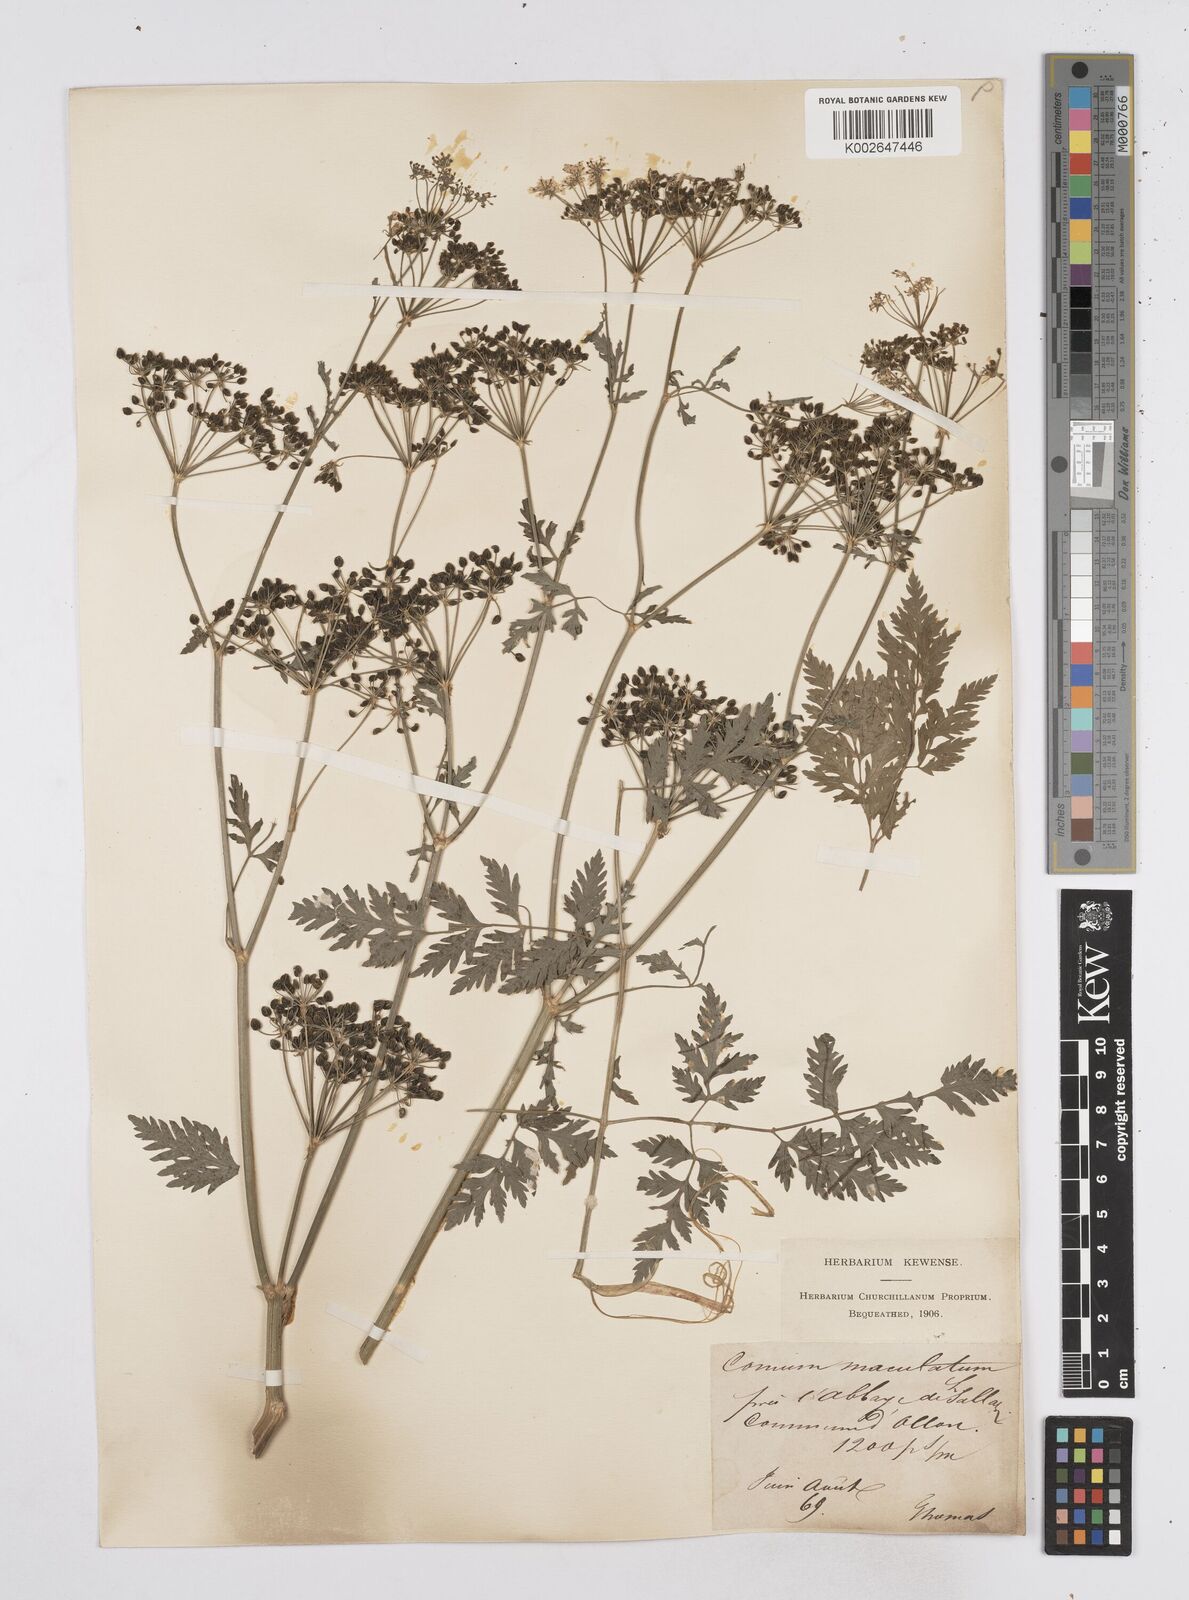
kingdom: Plantae
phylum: Tracheophyta
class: Magnoliopsida
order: Apiales
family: Apiaceae
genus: Conium
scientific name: Conium maculatum
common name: Hemlock
